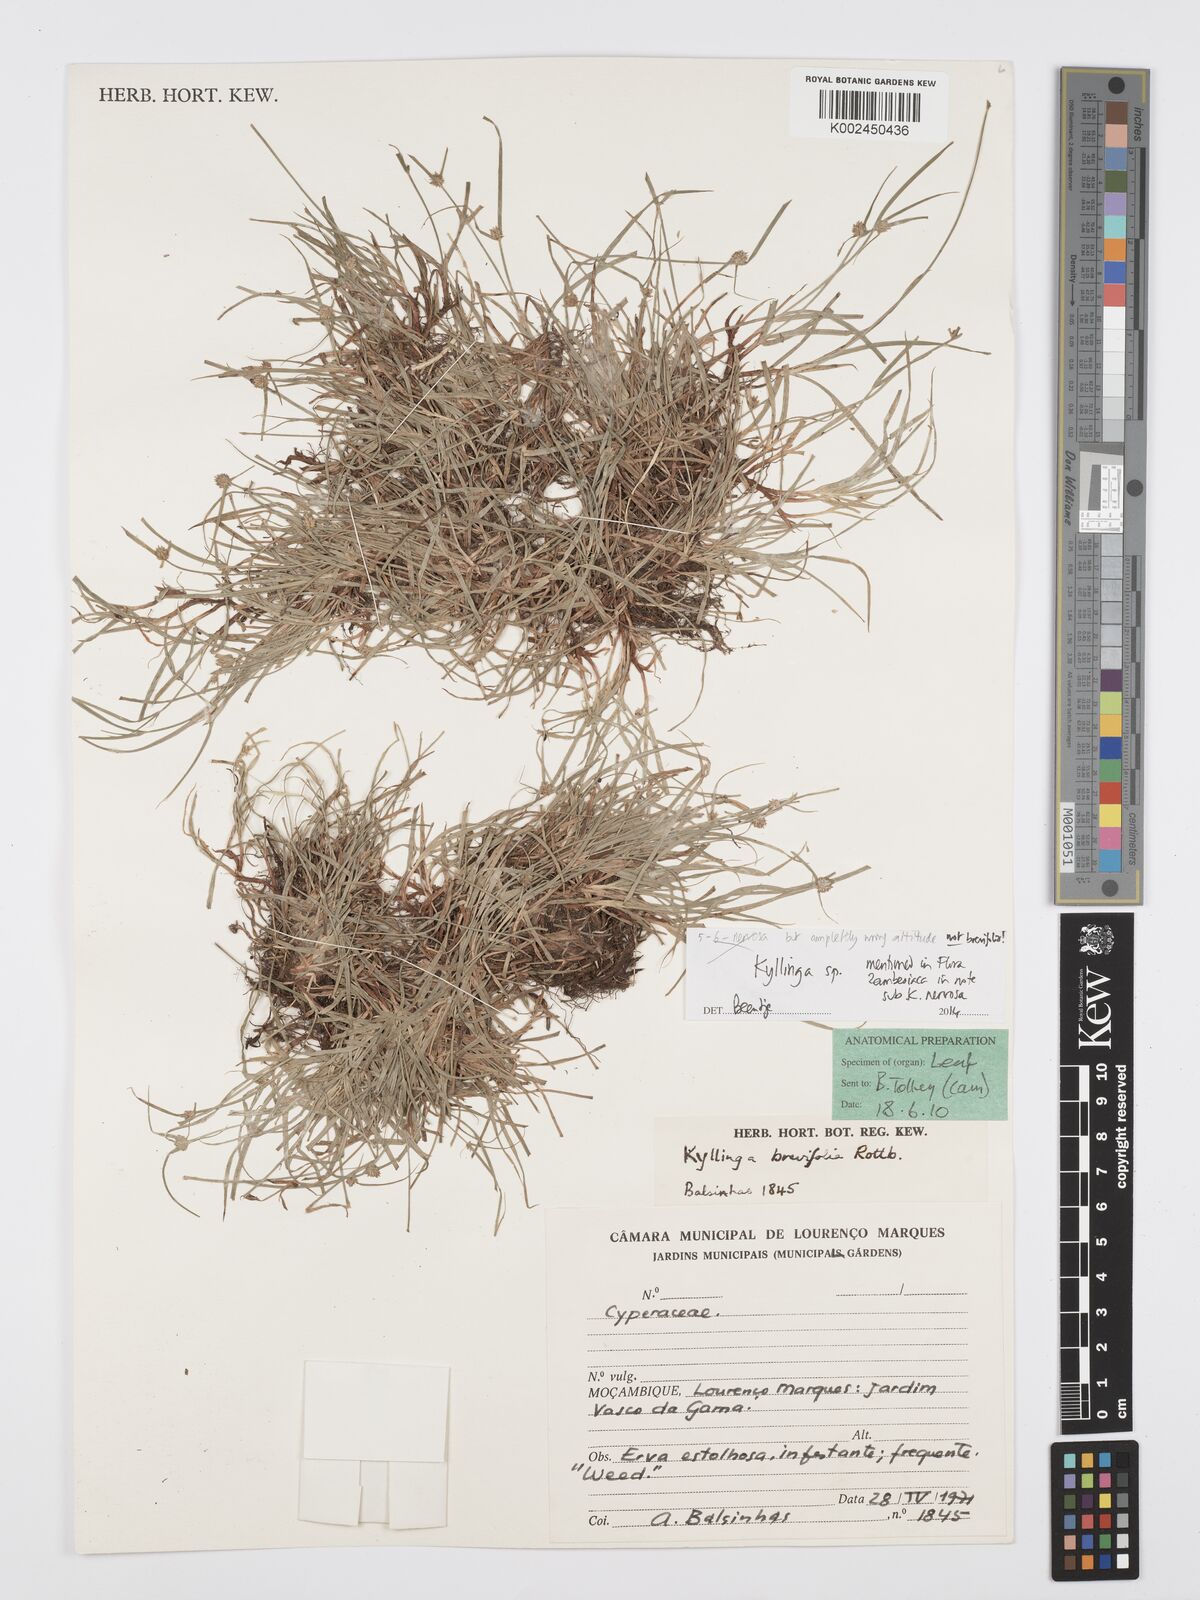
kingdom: Plantae
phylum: Tracheophyta
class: Liliopsida
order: Poales
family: Cyperaceae
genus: Cyperus
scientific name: Cyperus
